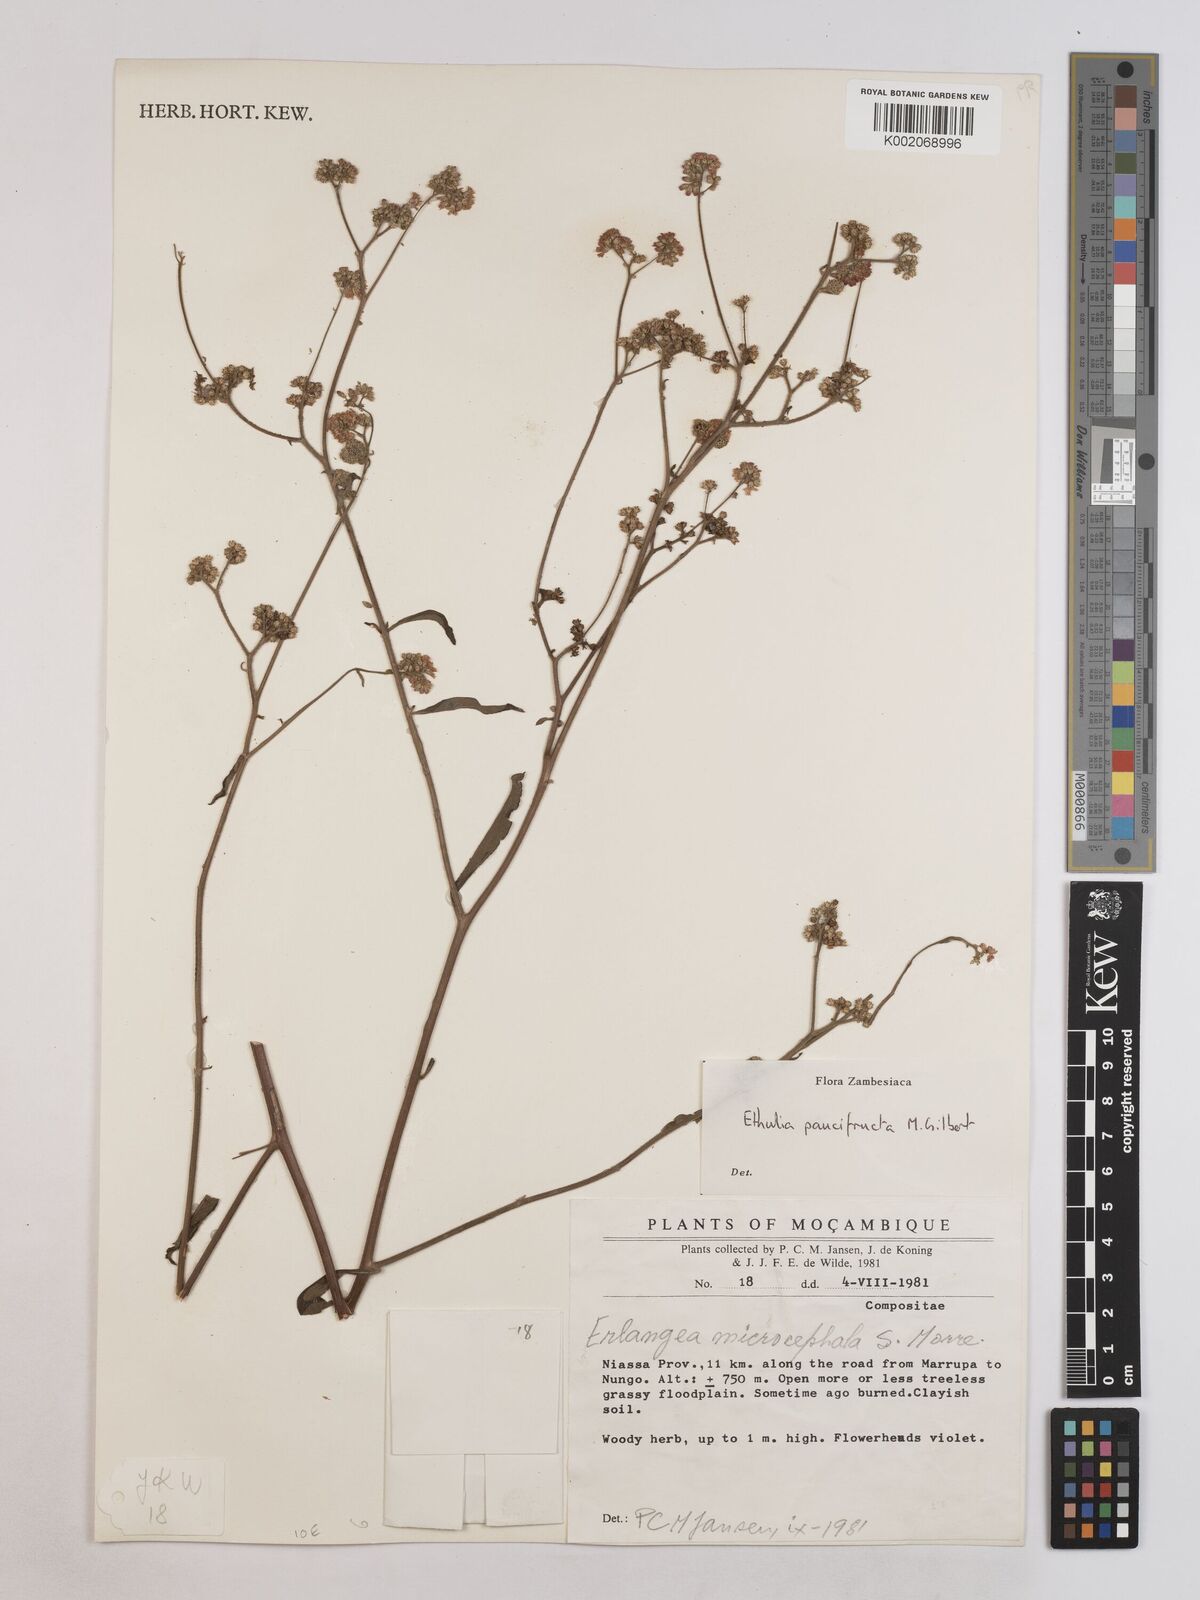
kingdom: Plantae
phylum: Tracheophyta
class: Magnoliopsida
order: Asterales
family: Asteraceae
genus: Ethulia
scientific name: Ethulia paucifructa
